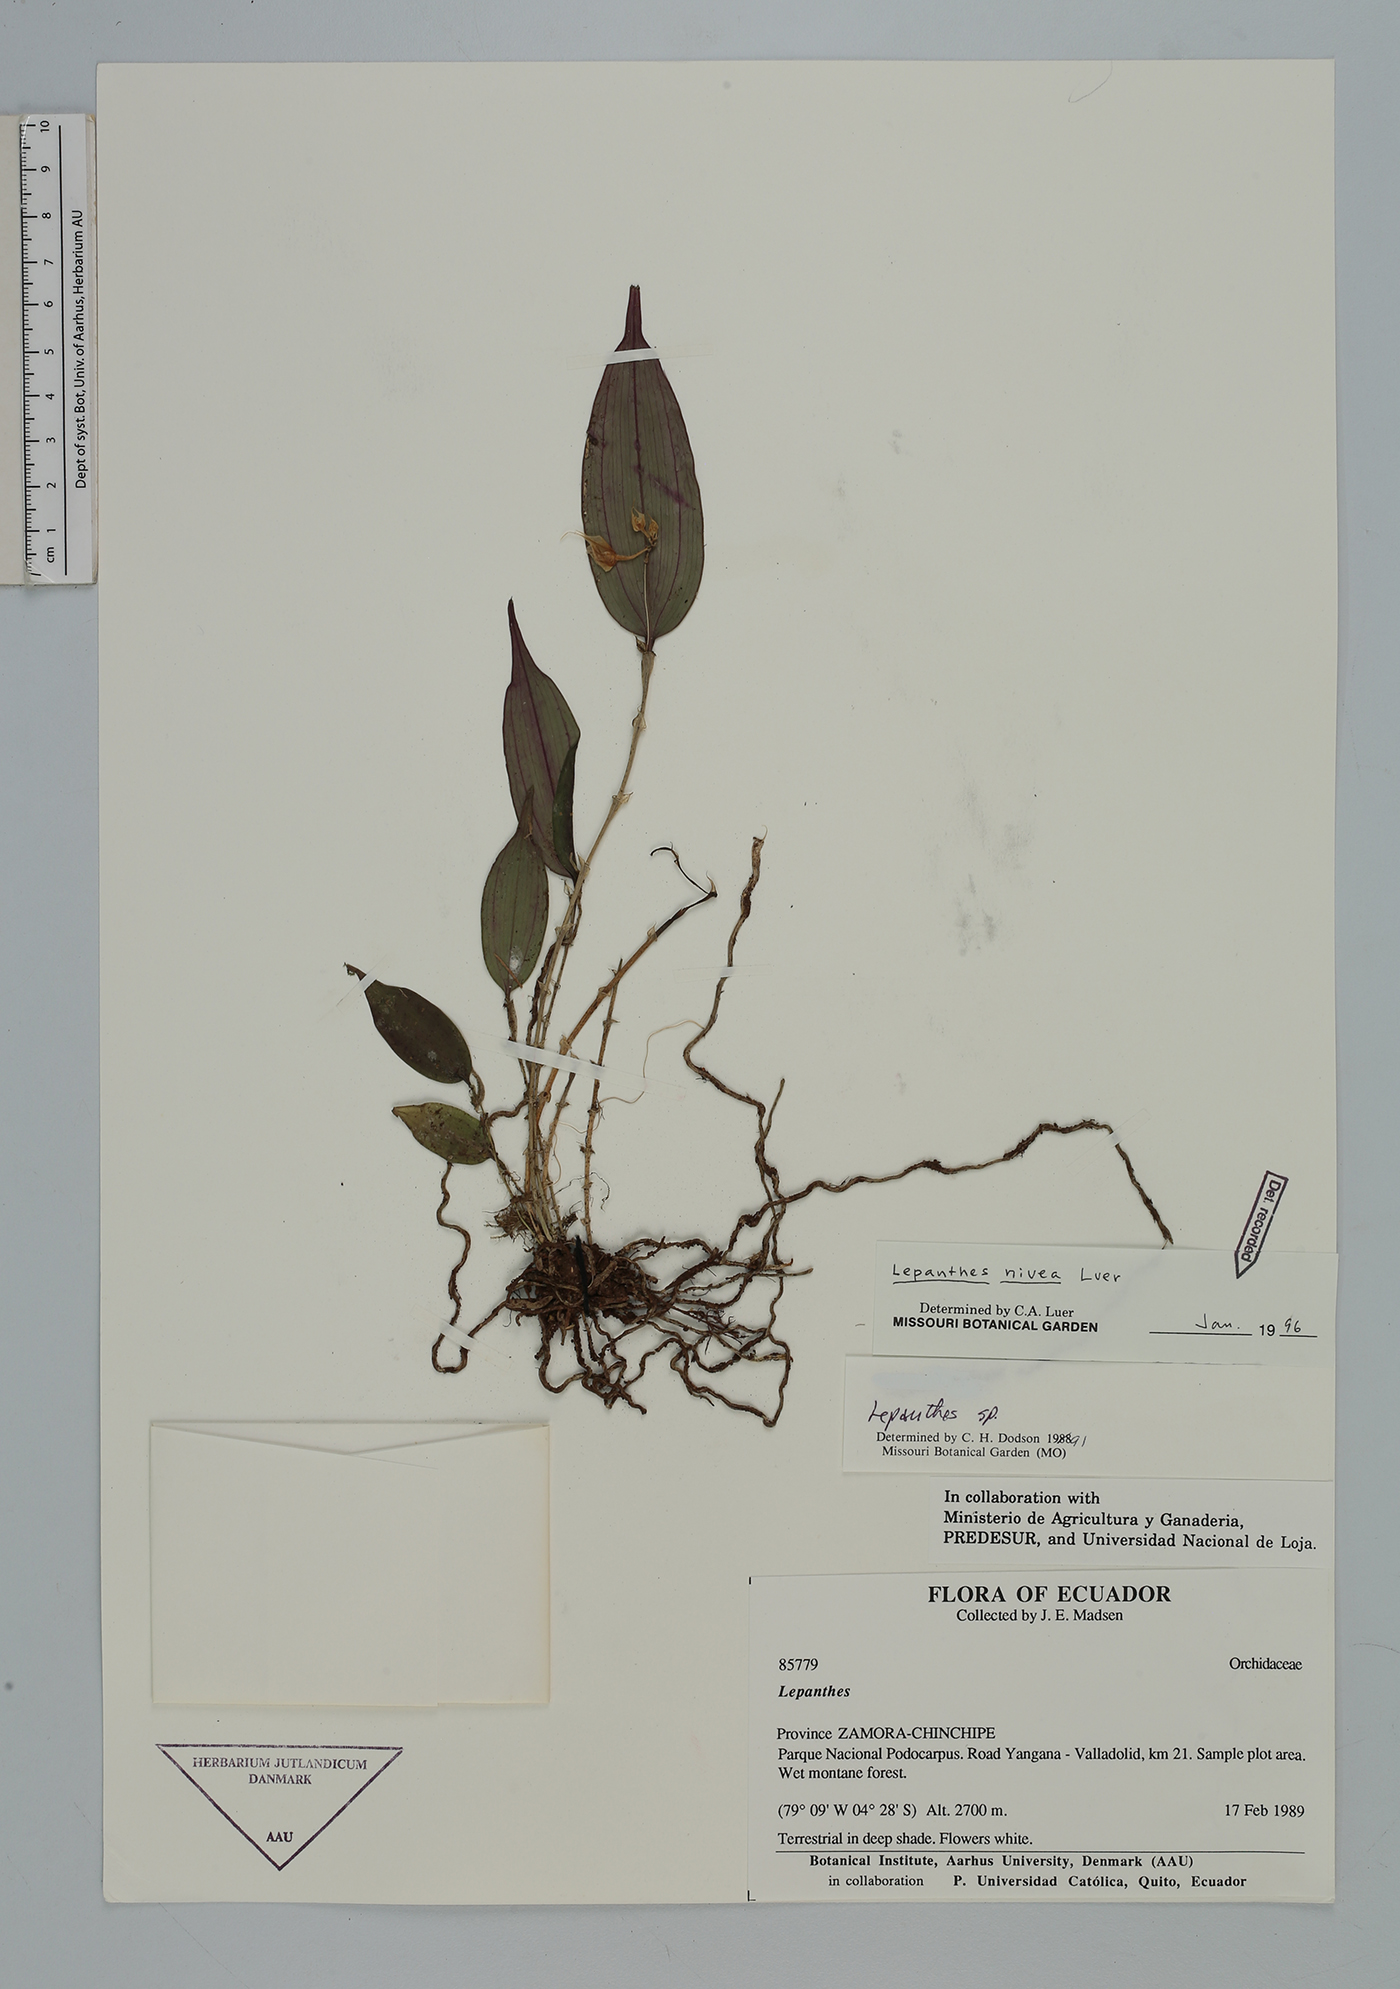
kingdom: Plantae
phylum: Tracheophyta
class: Liliopsida
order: Asparagales
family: Orchidaceae
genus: Lepanthes
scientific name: Lepanthes nivea
